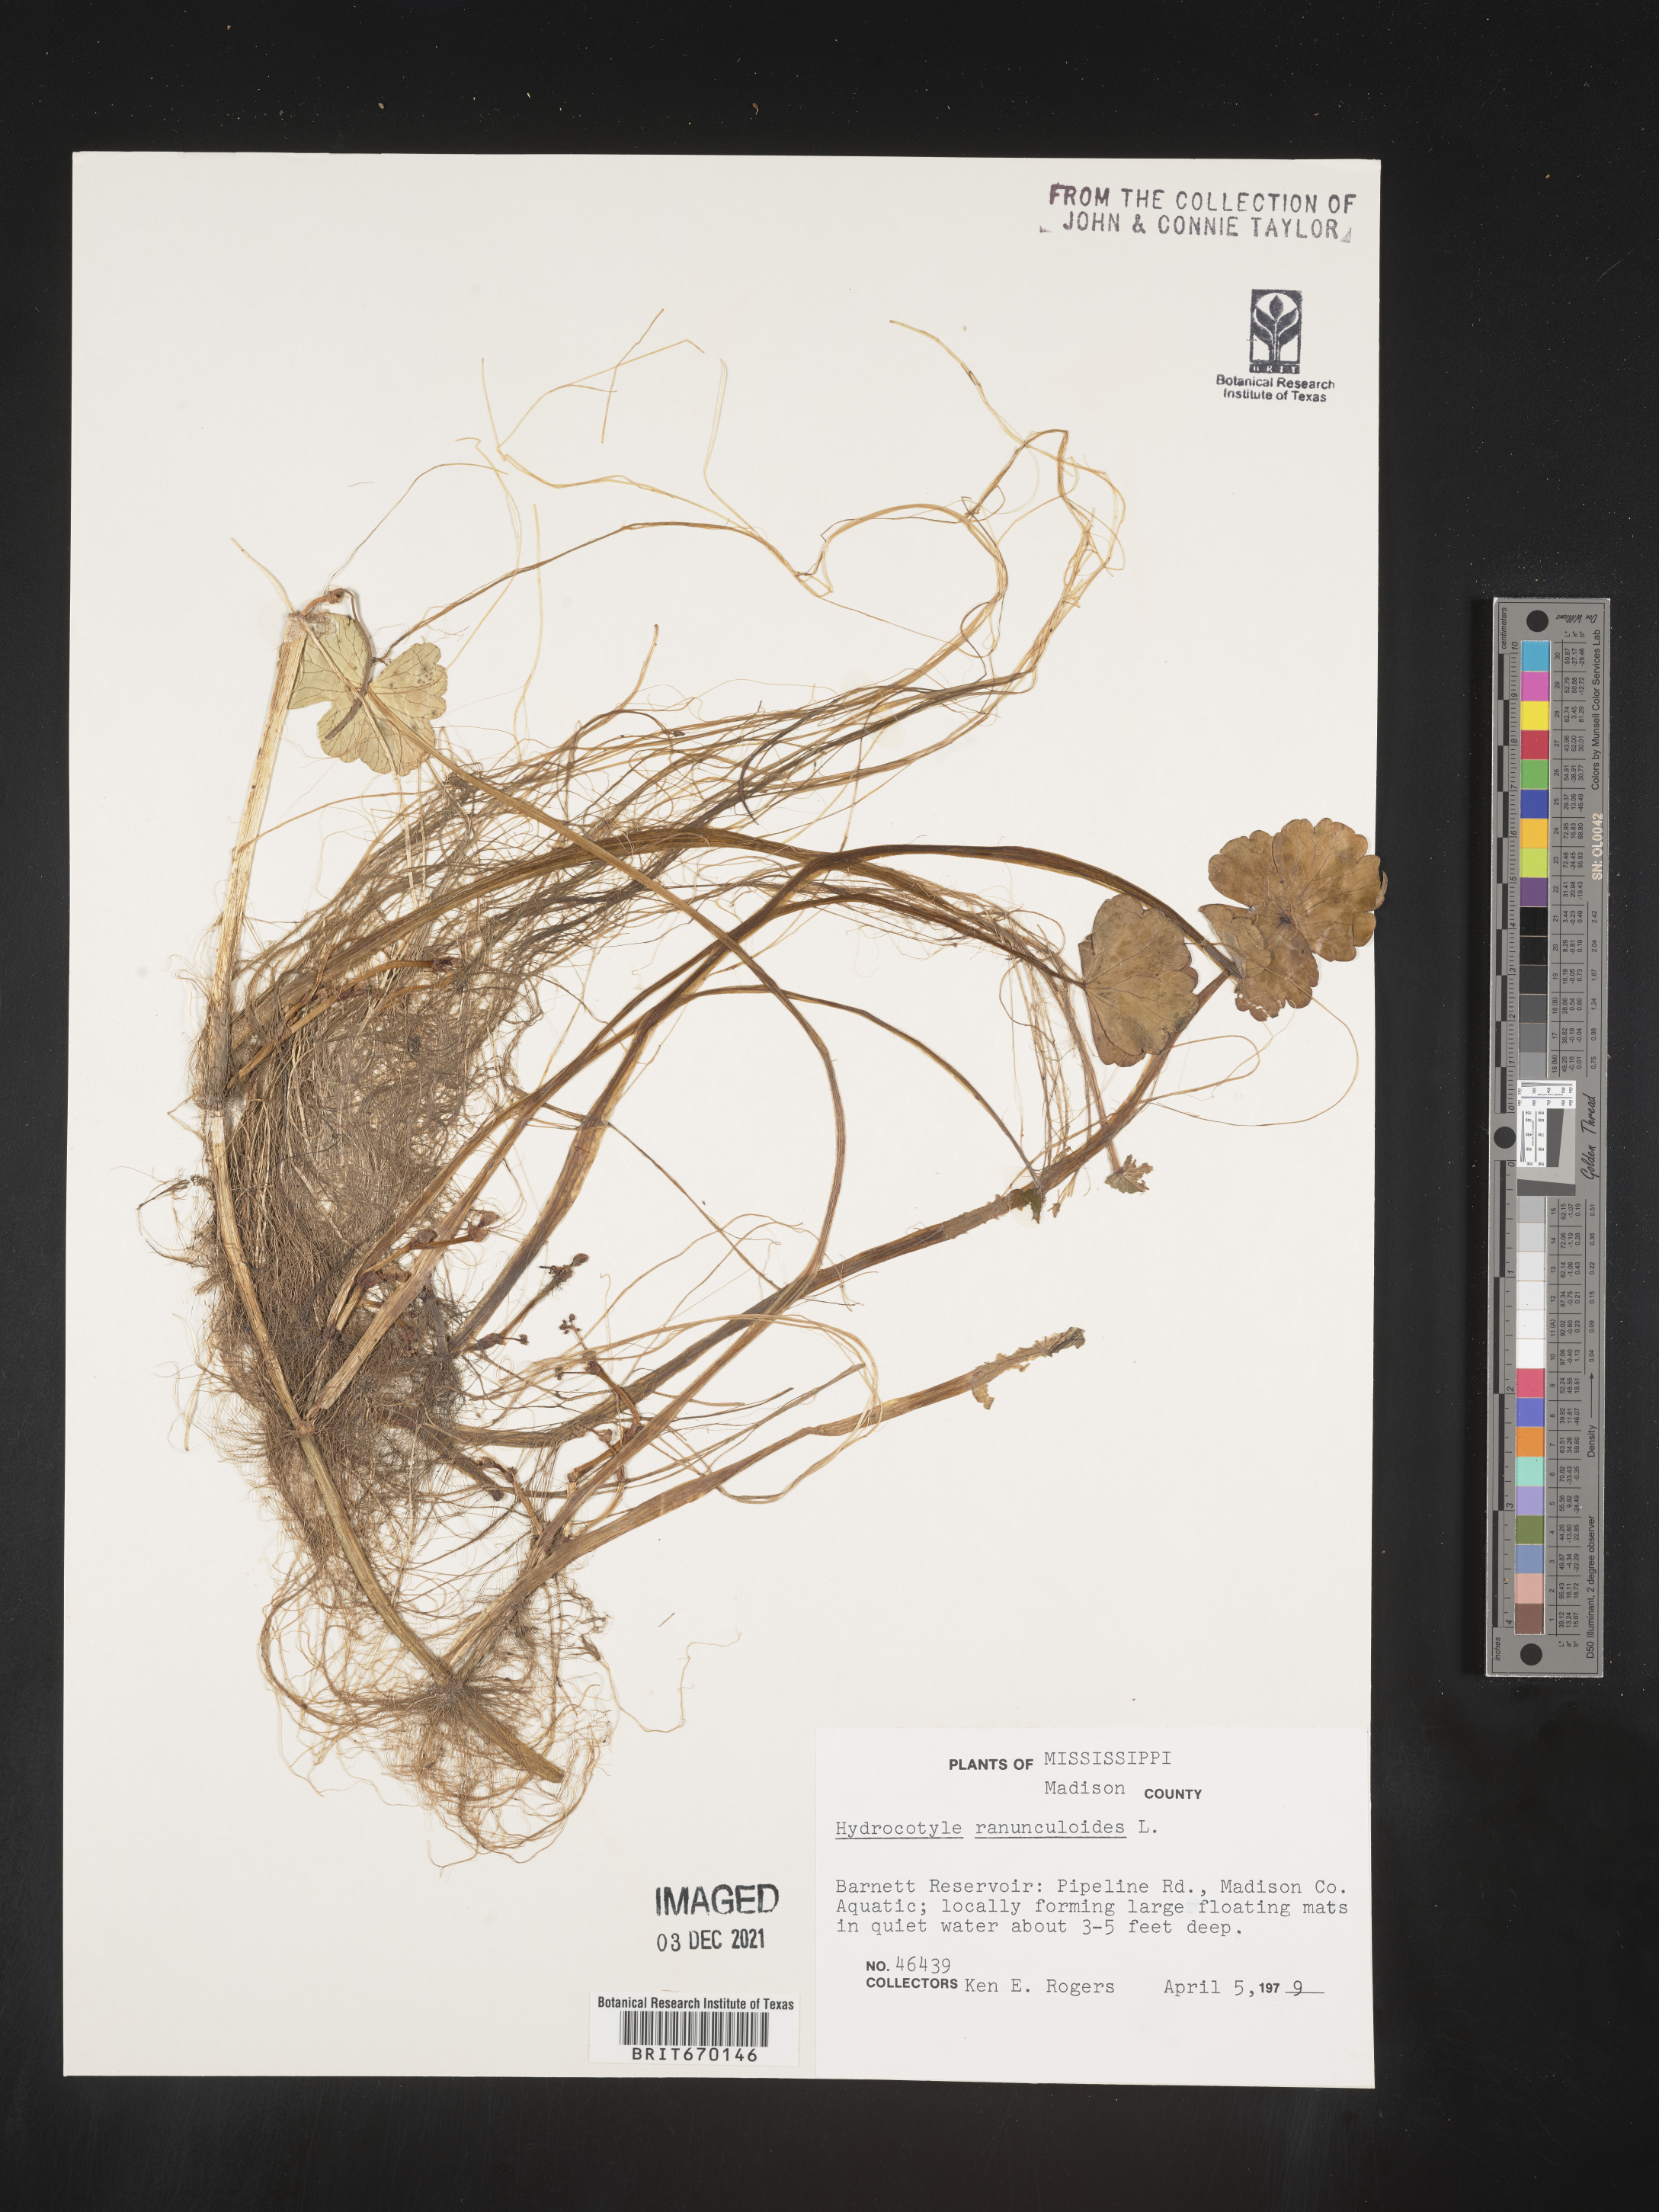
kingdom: Plantae
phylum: Tracheophyta
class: Magnoliopsida
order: Apiales
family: Araliaceae
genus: Hydrocotyle
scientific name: Hydrocotyle ranunculoides
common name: Floating pennywort
